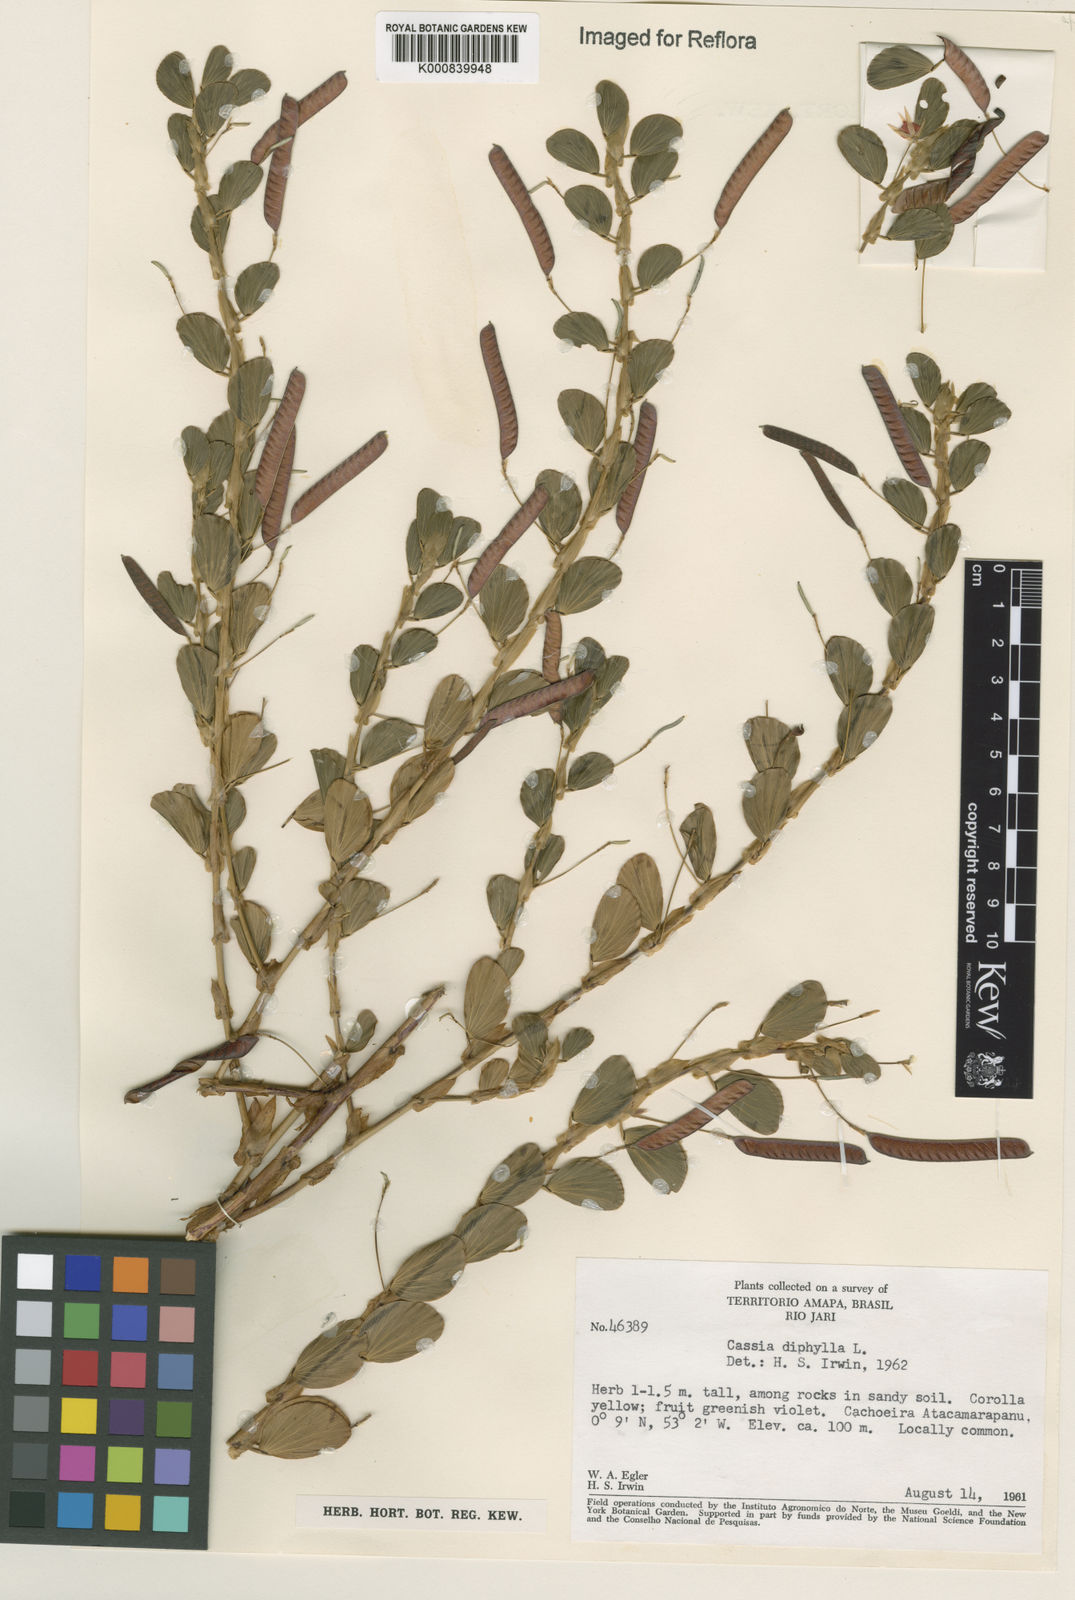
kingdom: Plantae
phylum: Tracheophyta
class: Magnoliopsida
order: Fabales
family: Fabaceae
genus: Chamaecrista
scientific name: Chamaecrista diphylla
